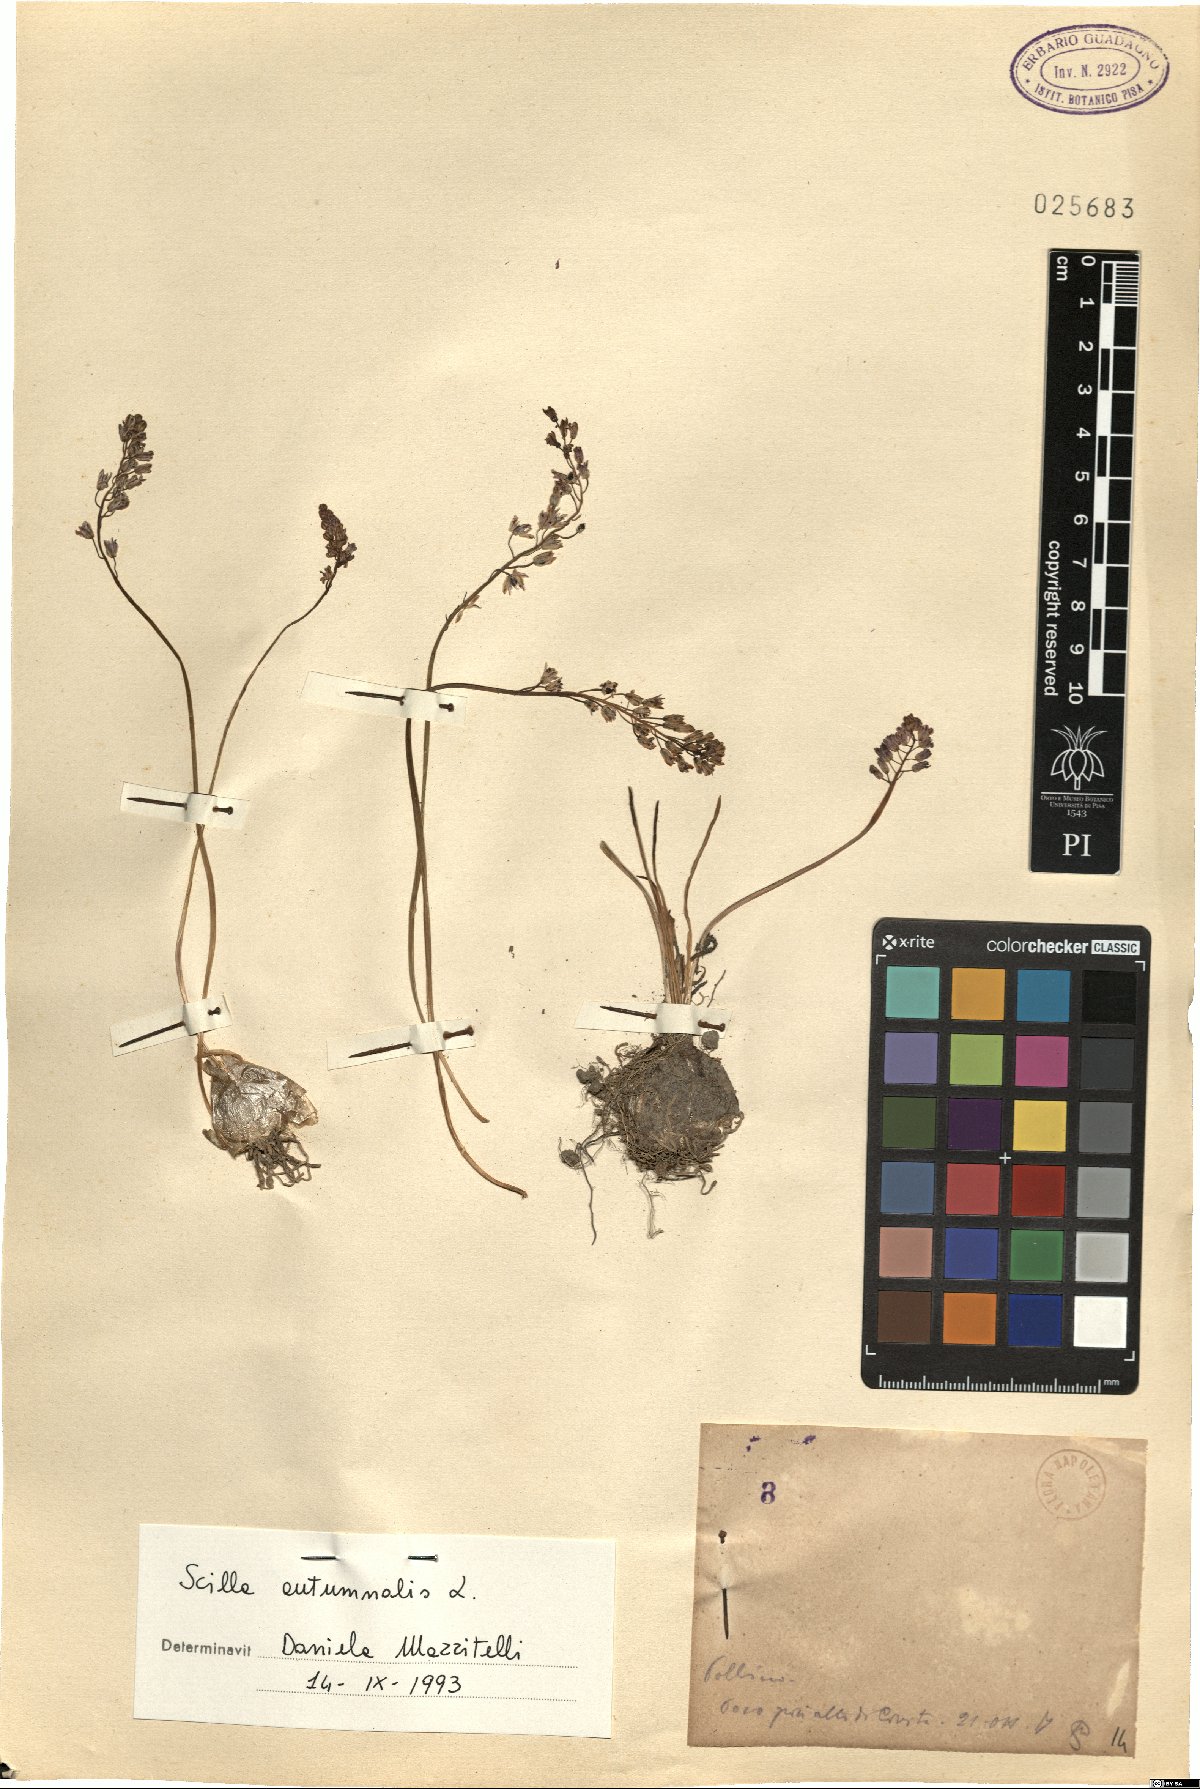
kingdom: Plantae
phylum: Tracheophyta
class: Liliopsida
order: Asparagales
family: Asparagaceae
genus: Prospero
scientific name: Prospero autumnale
